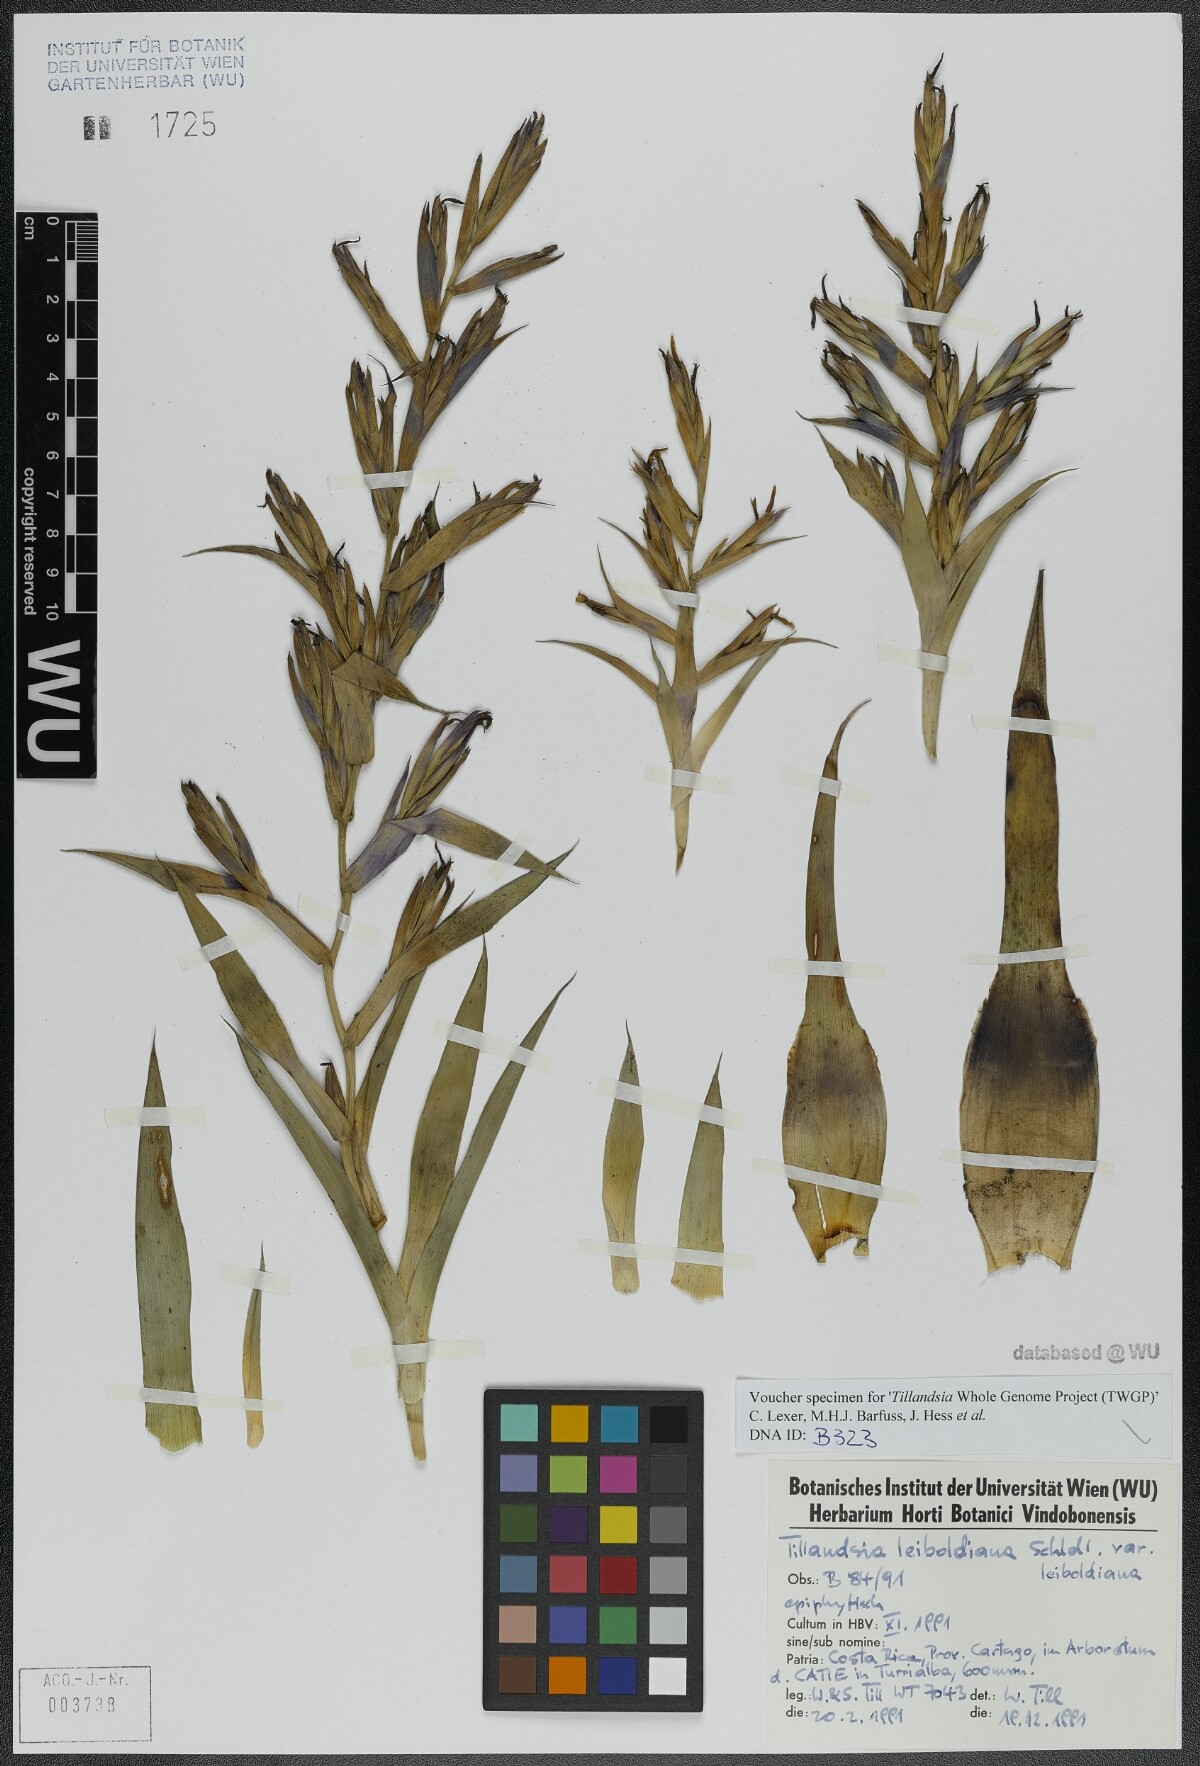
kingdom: Plantae
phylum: Tracheophyta
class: Liliopsida
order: Poales
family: Bromeliaceae
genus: Tillandsia
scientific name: Tillandsia leiboldiana
